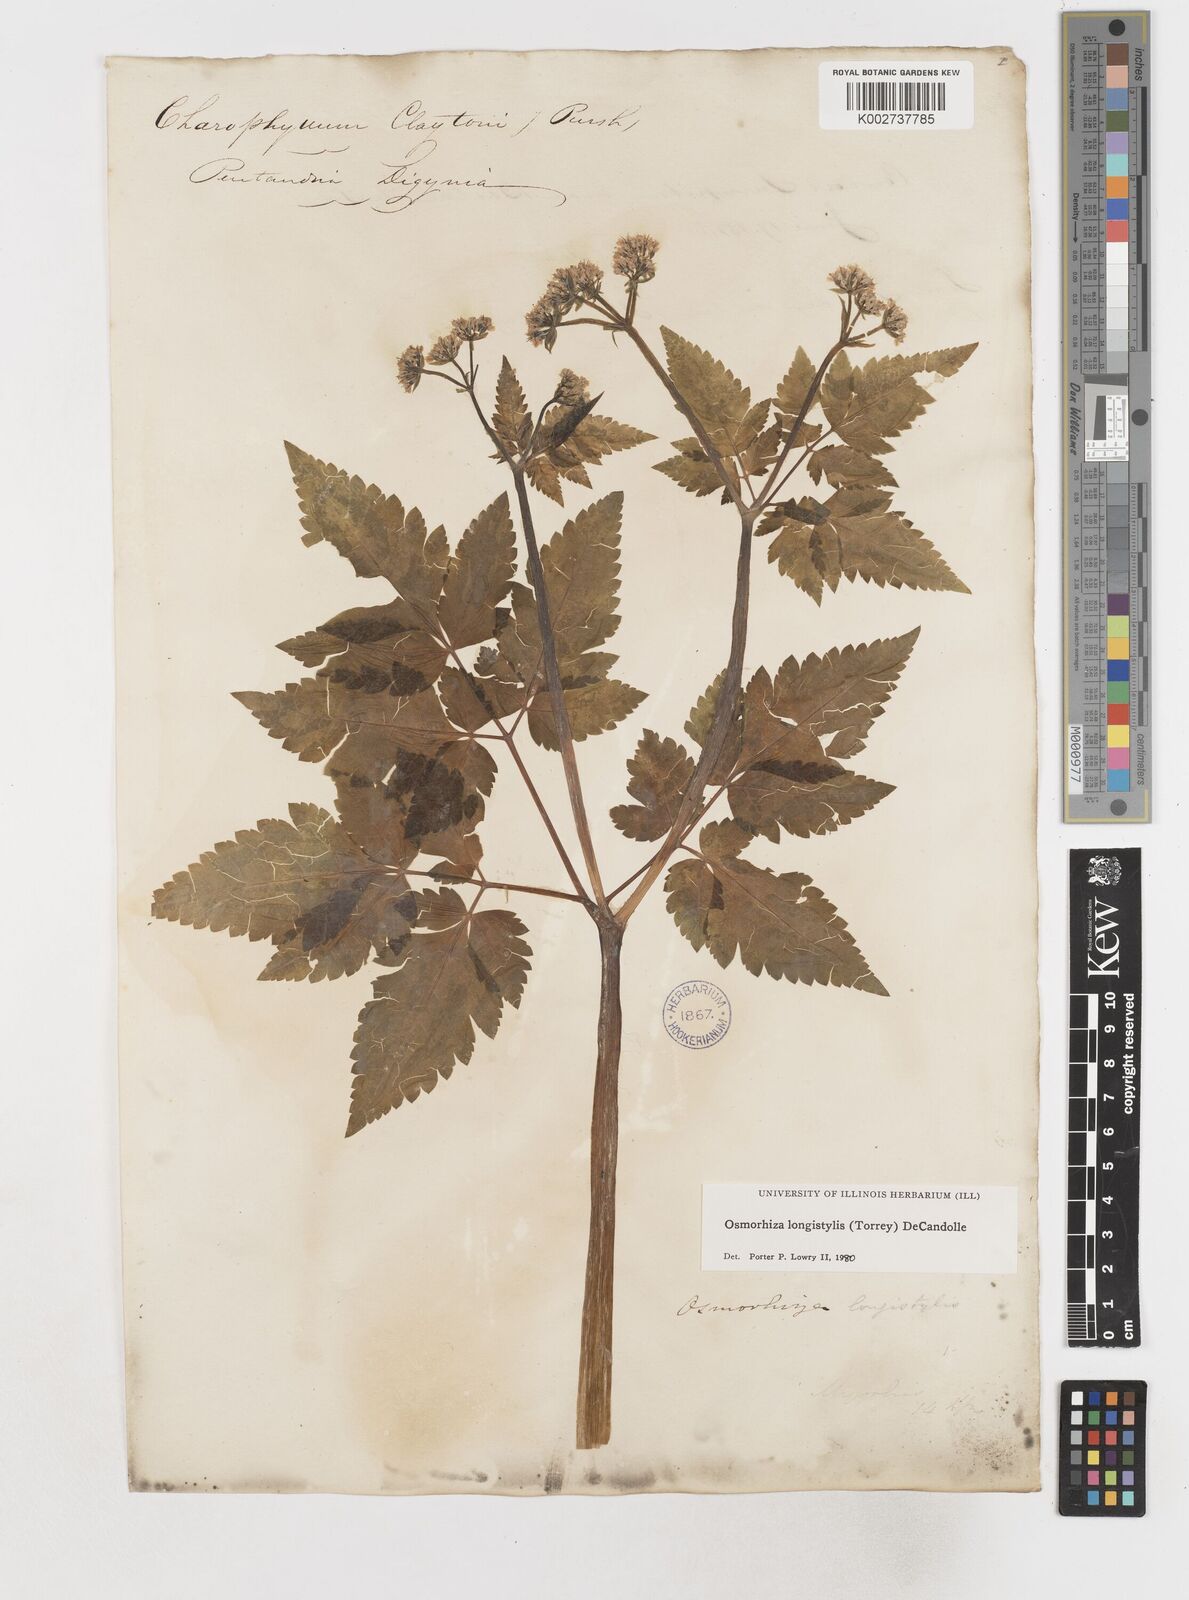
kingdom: Plantae
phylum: Tracheophyta
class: Magnoliopsida
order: Apiales
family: Apiaceae
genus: Osmorhiza
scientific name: Osmorhiza longistylis
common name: Smooth sweet cicely
